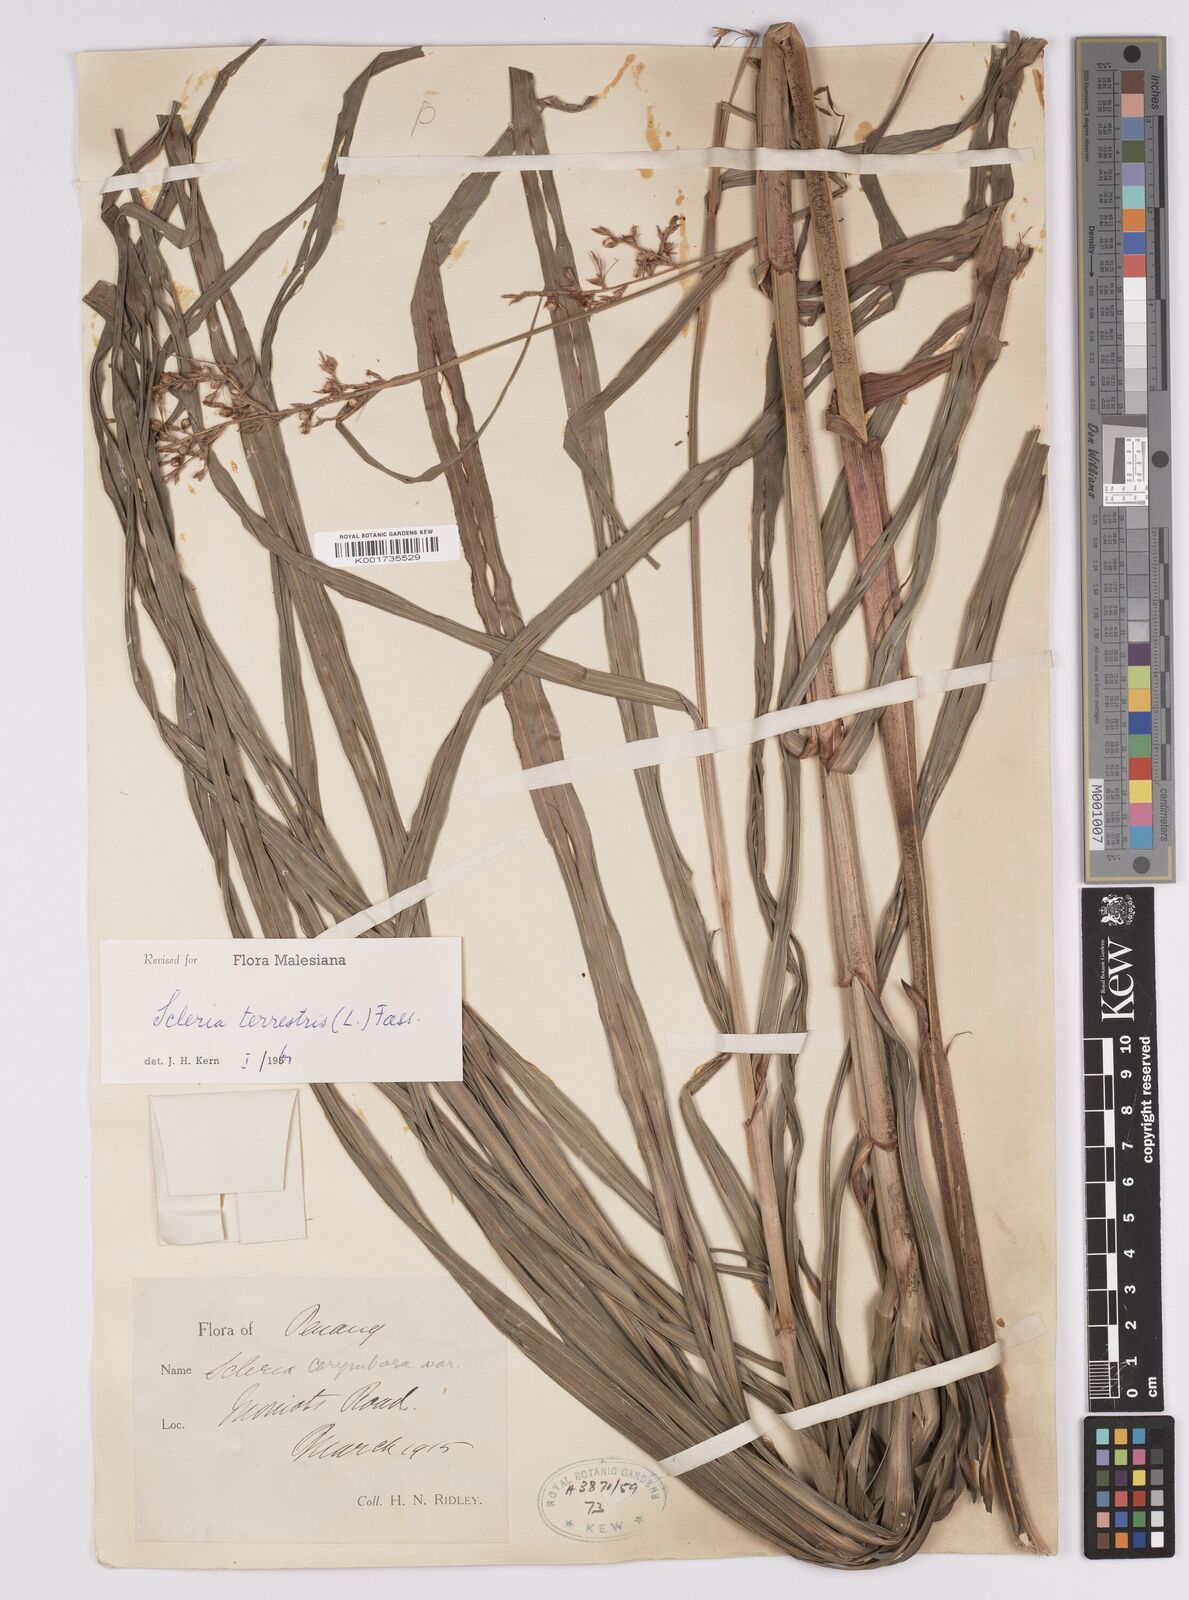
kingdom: Plantae
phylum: Tracheophyta
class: Liliopsida
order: Poales
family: Cyperaceae
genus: Scleria
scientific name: Scleria terrestris
